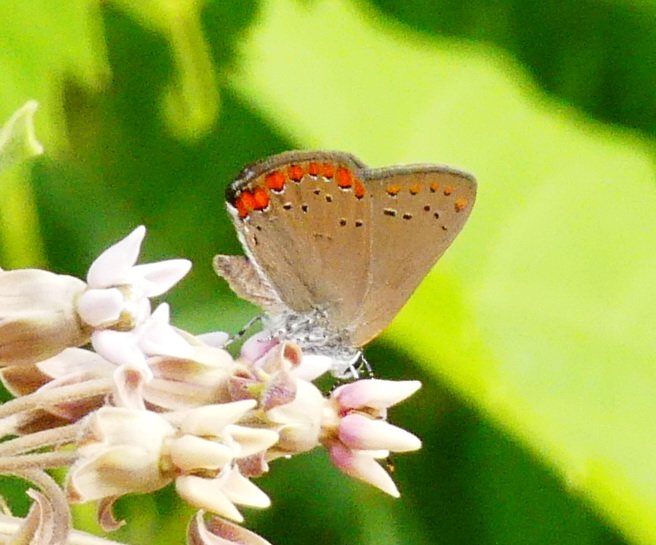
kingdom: Animalia
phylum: Arthropoda
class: Insecta
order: Lepidoptera
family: Lycaenidae
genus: Harkenclenus
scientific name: Harkenclenus titus
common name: Coral Hairstreak
